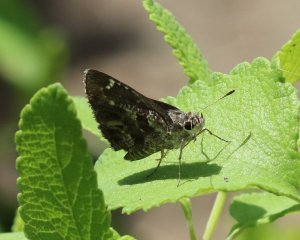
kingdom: Animalia
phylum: Arthropoda
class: Insecta
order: Lepidoptera
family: Hesperiidae
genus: Mastor
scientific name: Mastor nysa
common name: Nysa Roadside-Skipper
